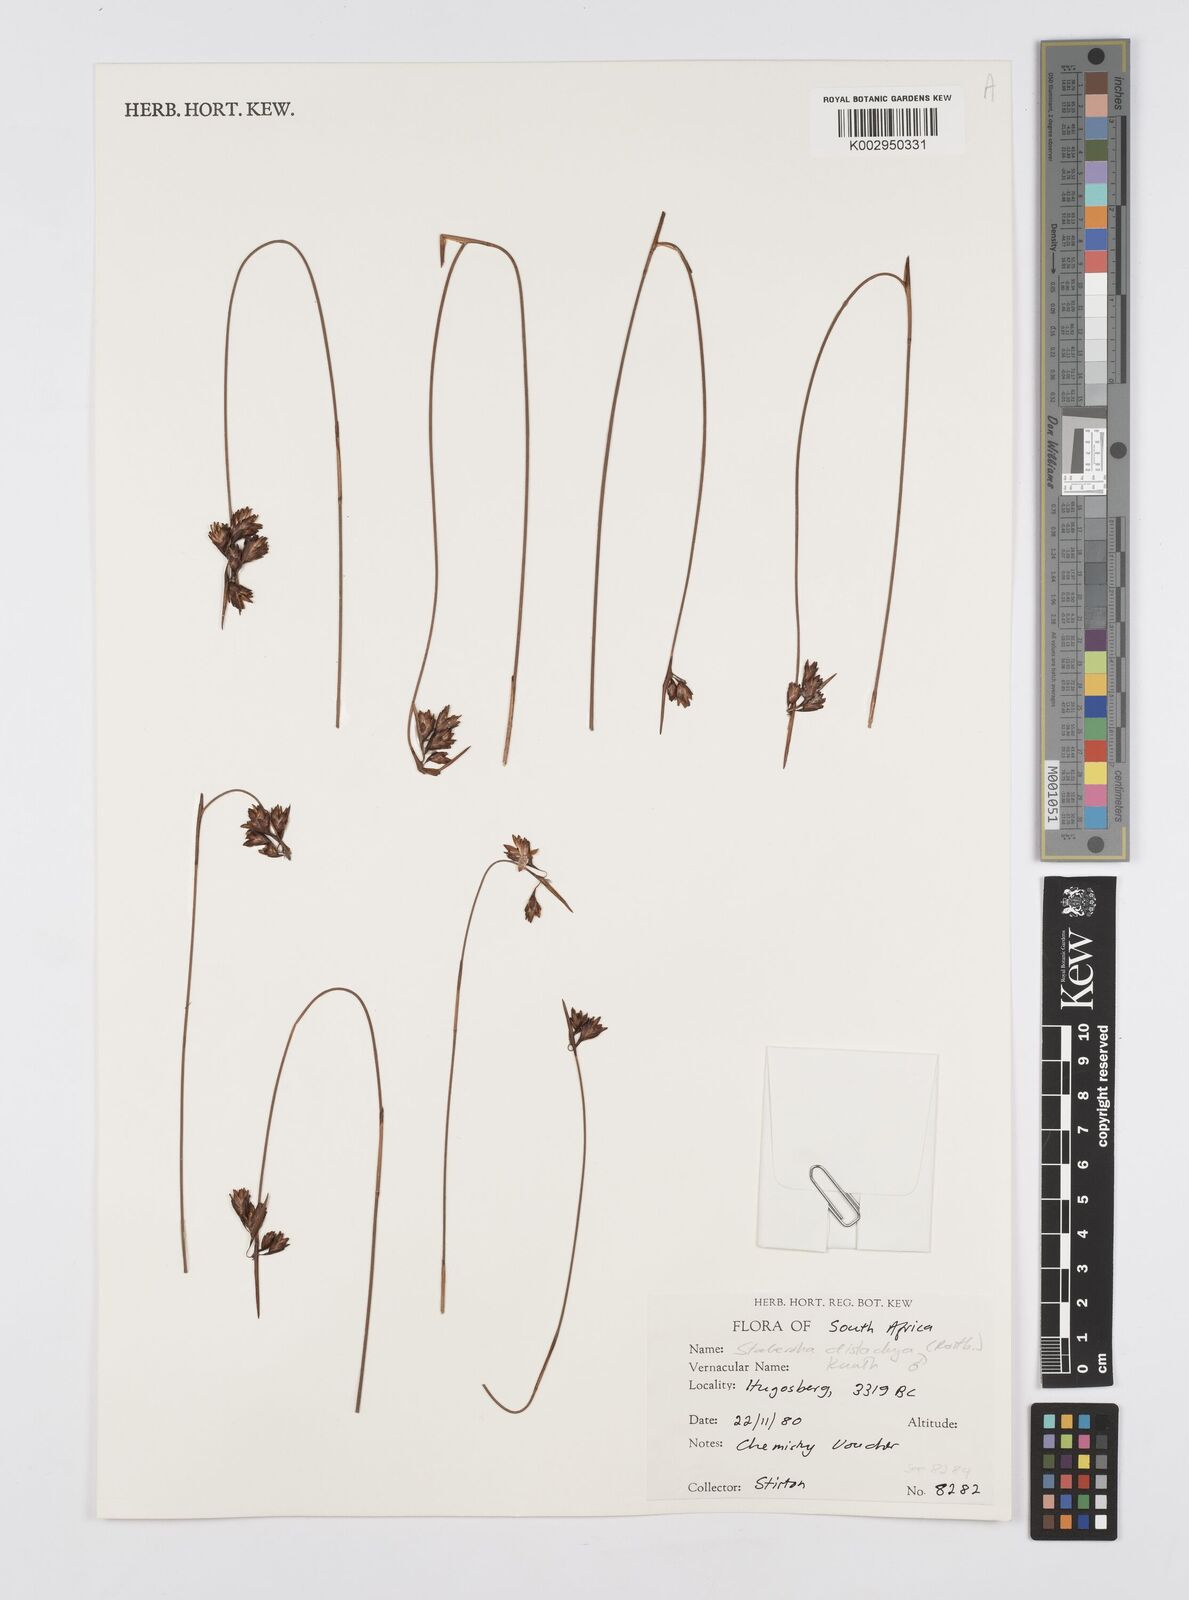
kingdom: Plantae
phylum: Tracheophyta
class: Liliopsida
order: Poales
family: Restionaceae
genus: Staberoha
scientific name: Staberoha distachyos
